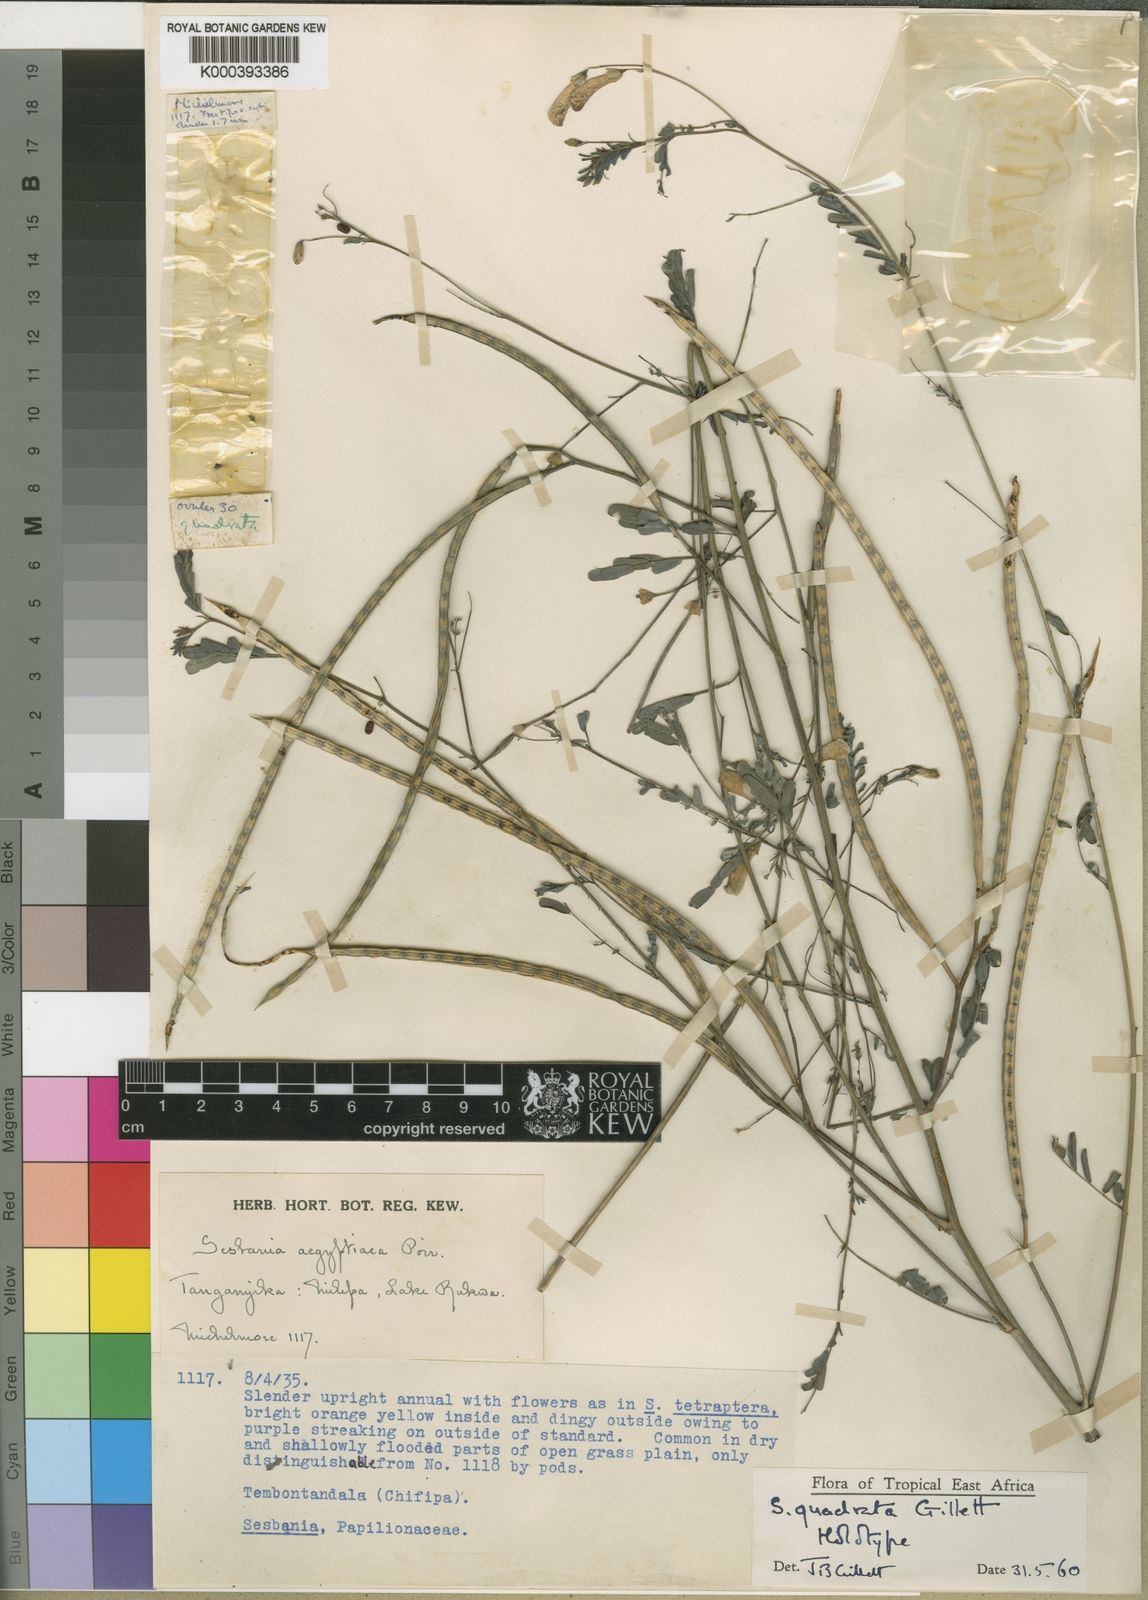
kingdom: Plantae
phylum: Tracheophyta
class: Magnoliopsida
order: Fabales
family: Fabaceae
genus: Sesbania
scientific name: Sesbania quadrata
